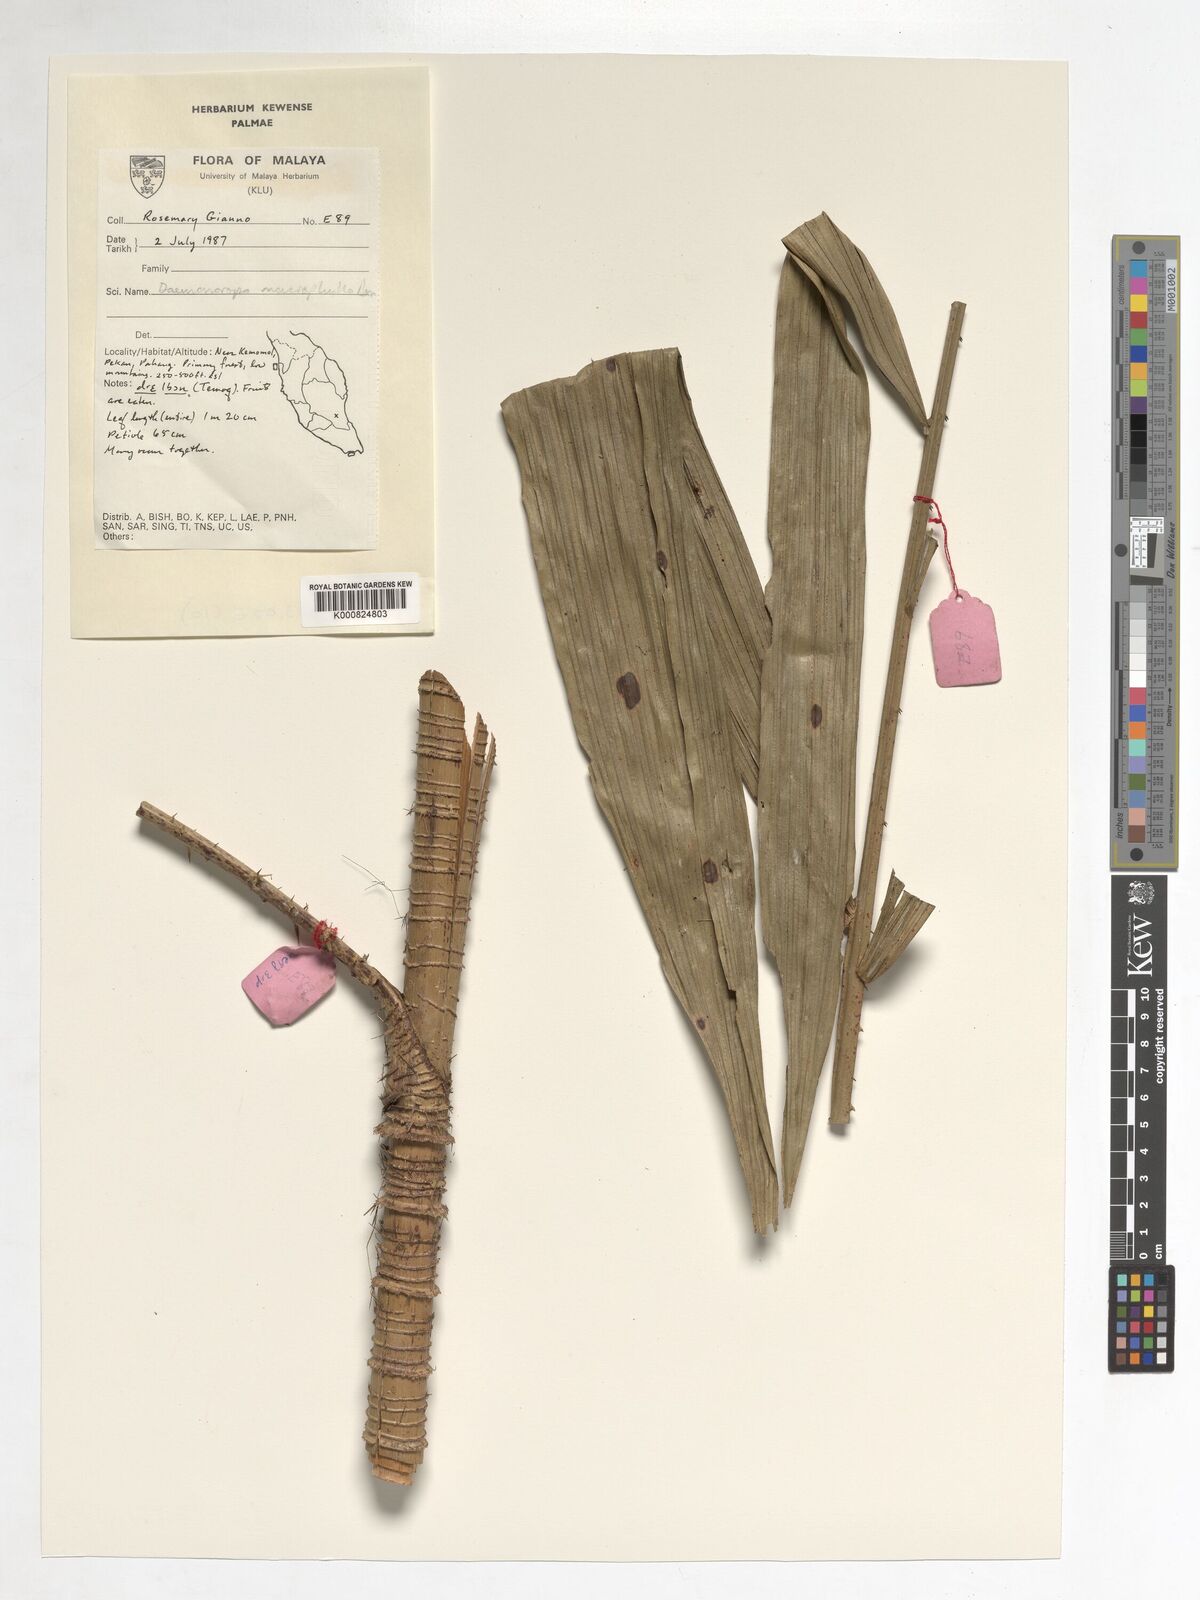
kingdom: Plantae
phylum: Tracheophyta
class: Liliopsida
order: Arecales
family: Arecaceae
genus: Calamus
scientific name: Calamus crinitus
